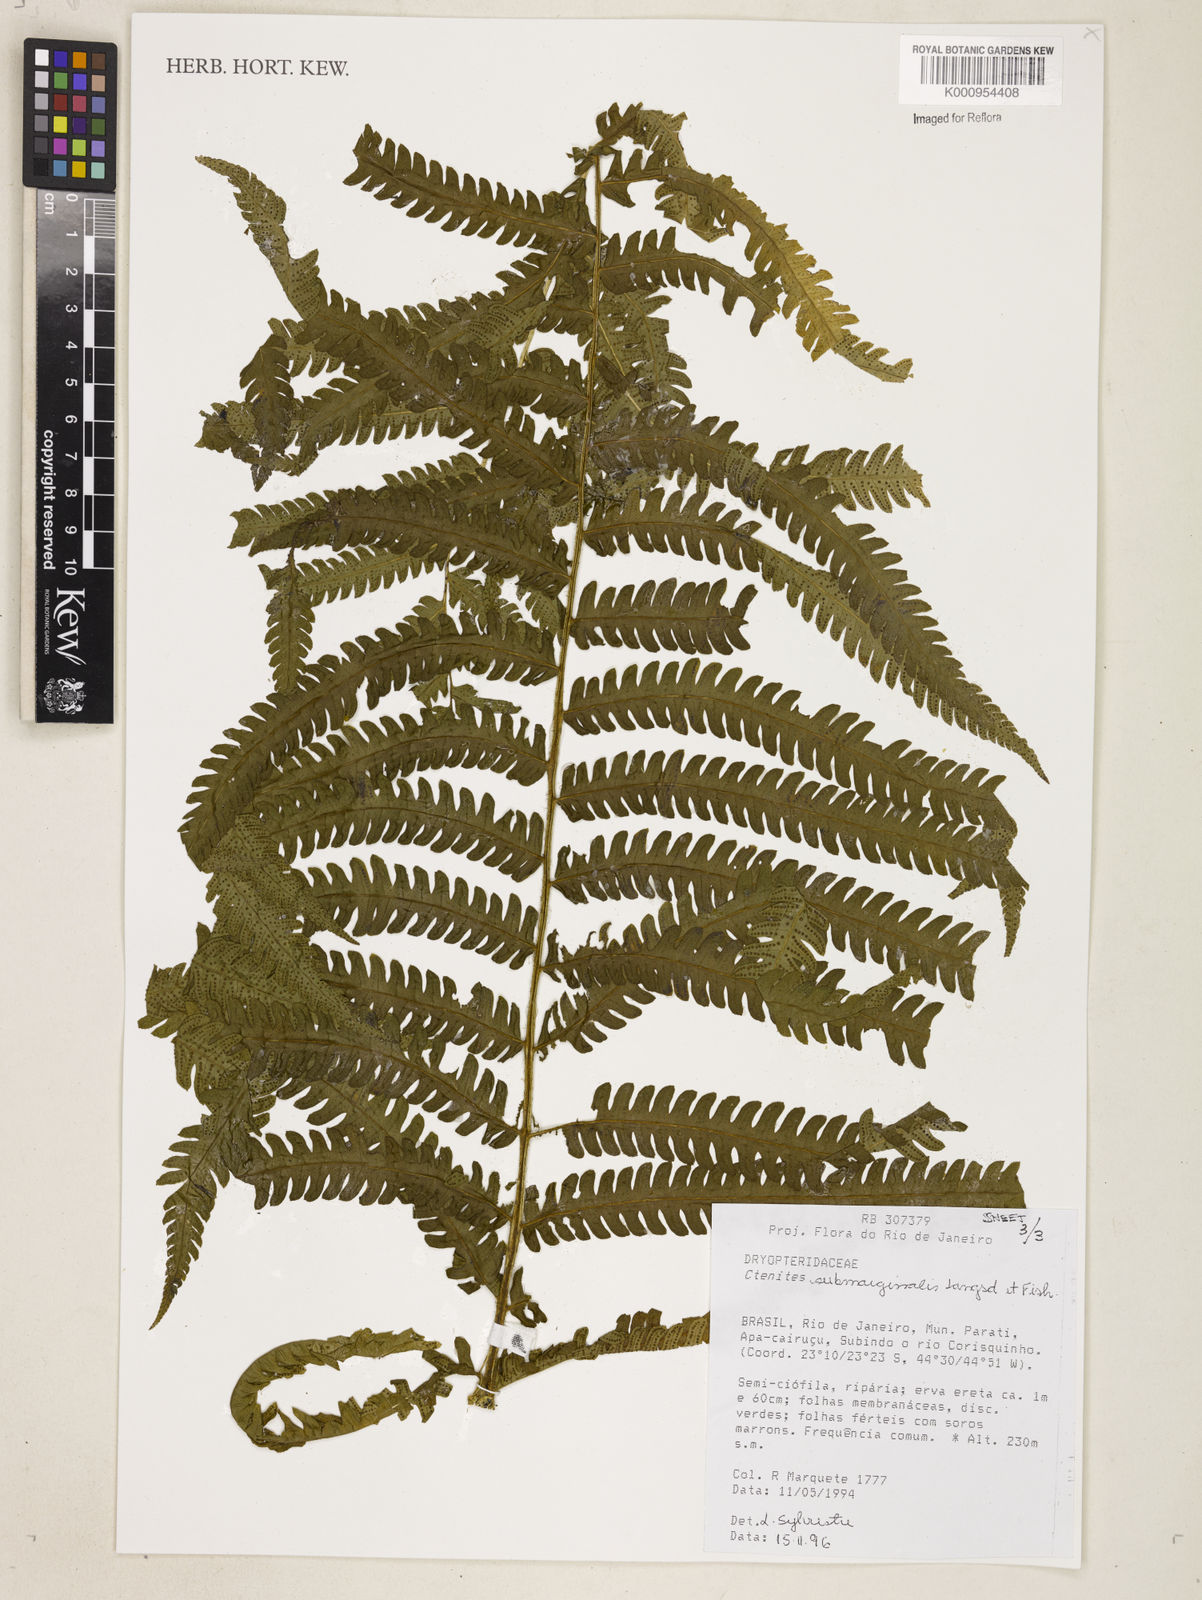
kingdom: Plantae
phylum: Tracheophyta
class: Polypodiopsida
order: Polypodiales
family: Dryopteridaceae
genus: Ctenitis
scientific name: Ctenitis submarginalis
